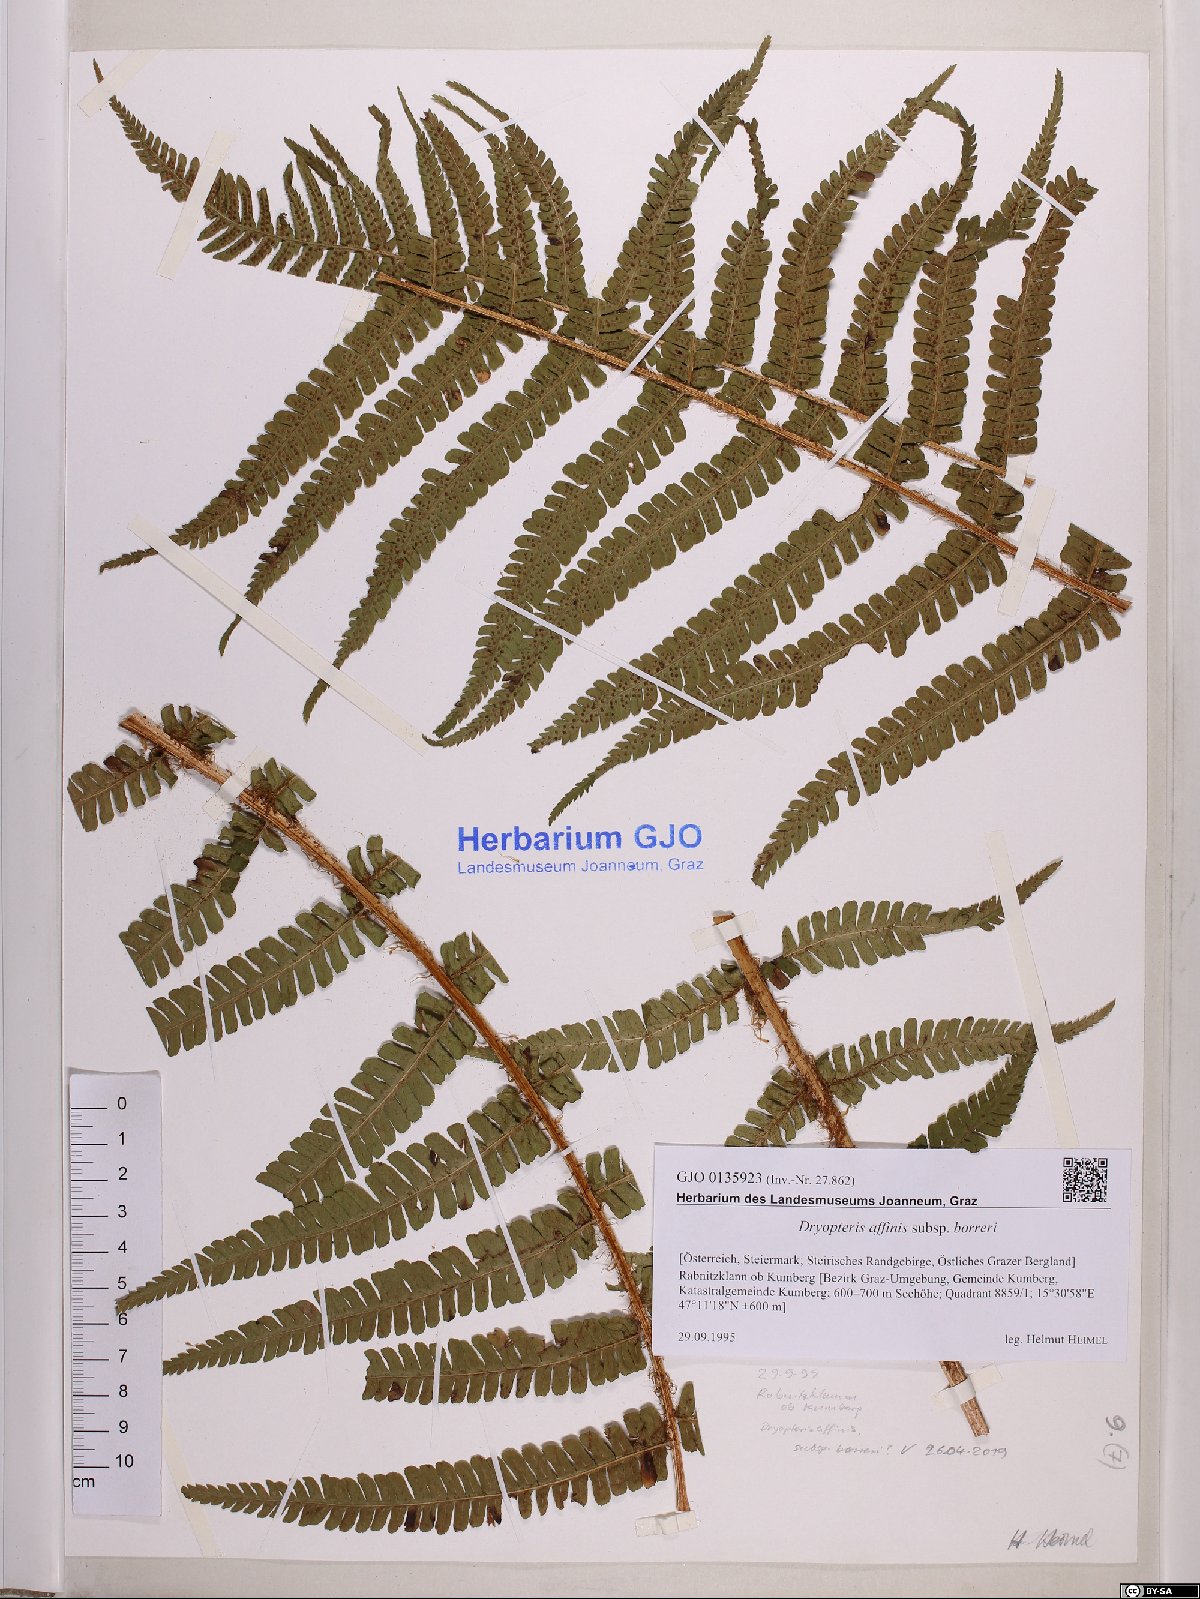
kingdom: Plantae
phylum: Tracheophyta
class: Polypodiopsida
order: Polypodiales
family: Dryopteridaceae
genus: Dryopteris
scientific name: Dryopteris borreri
